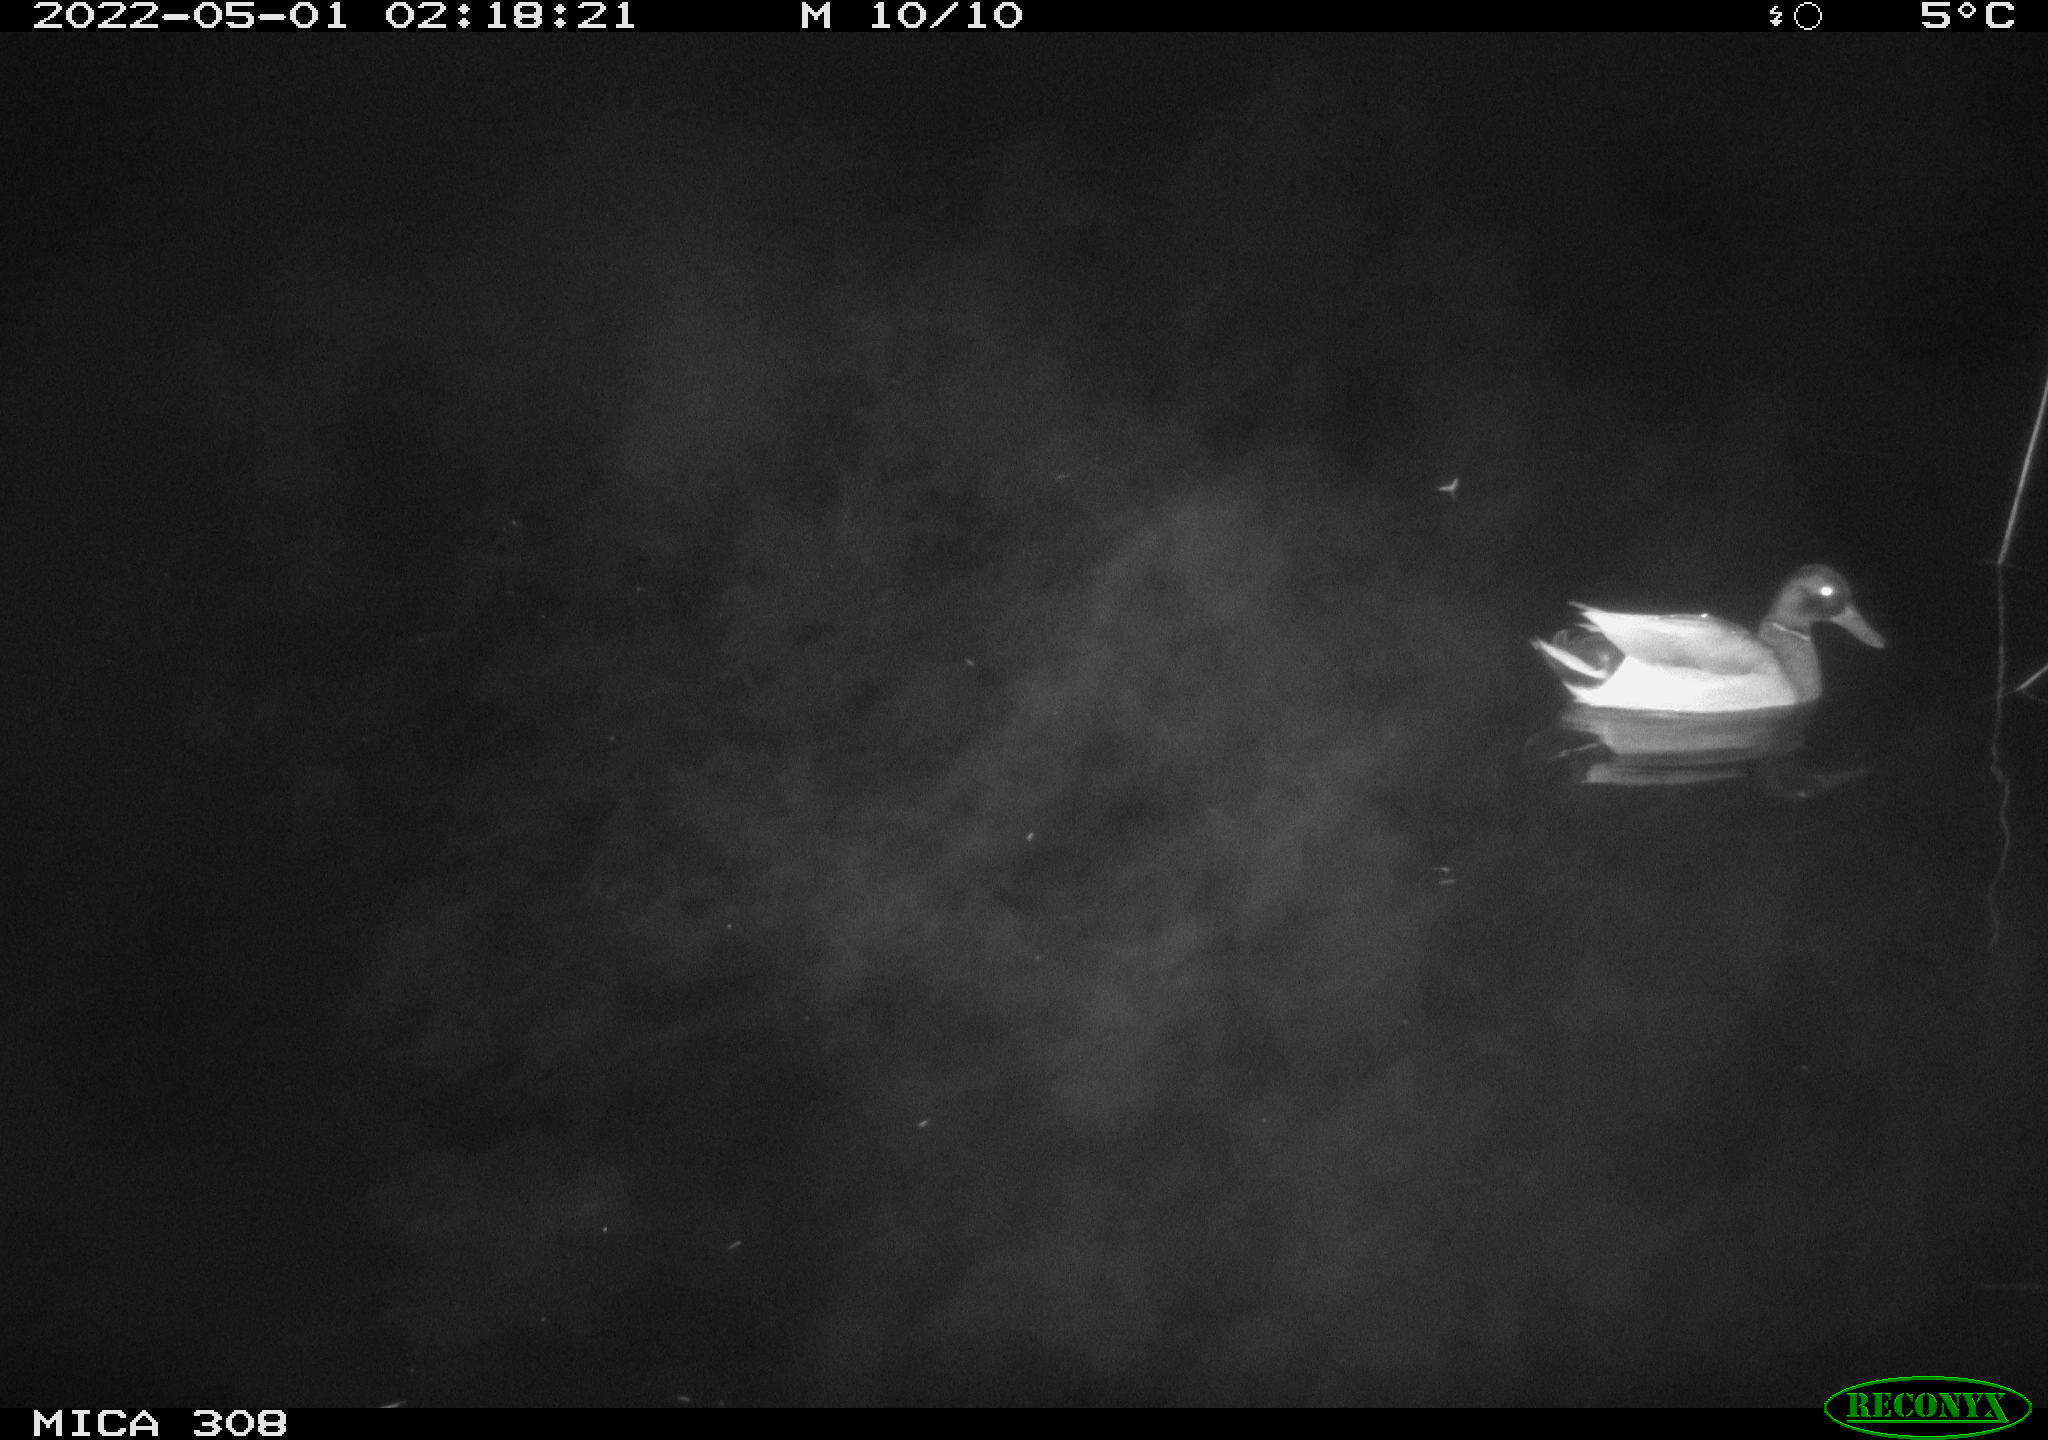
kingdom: Animalia
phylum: Chordata
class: Aves
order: Anseriformes
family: Anatidae
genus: Anas
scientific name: Anas platyrhynchos
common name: Mallard
